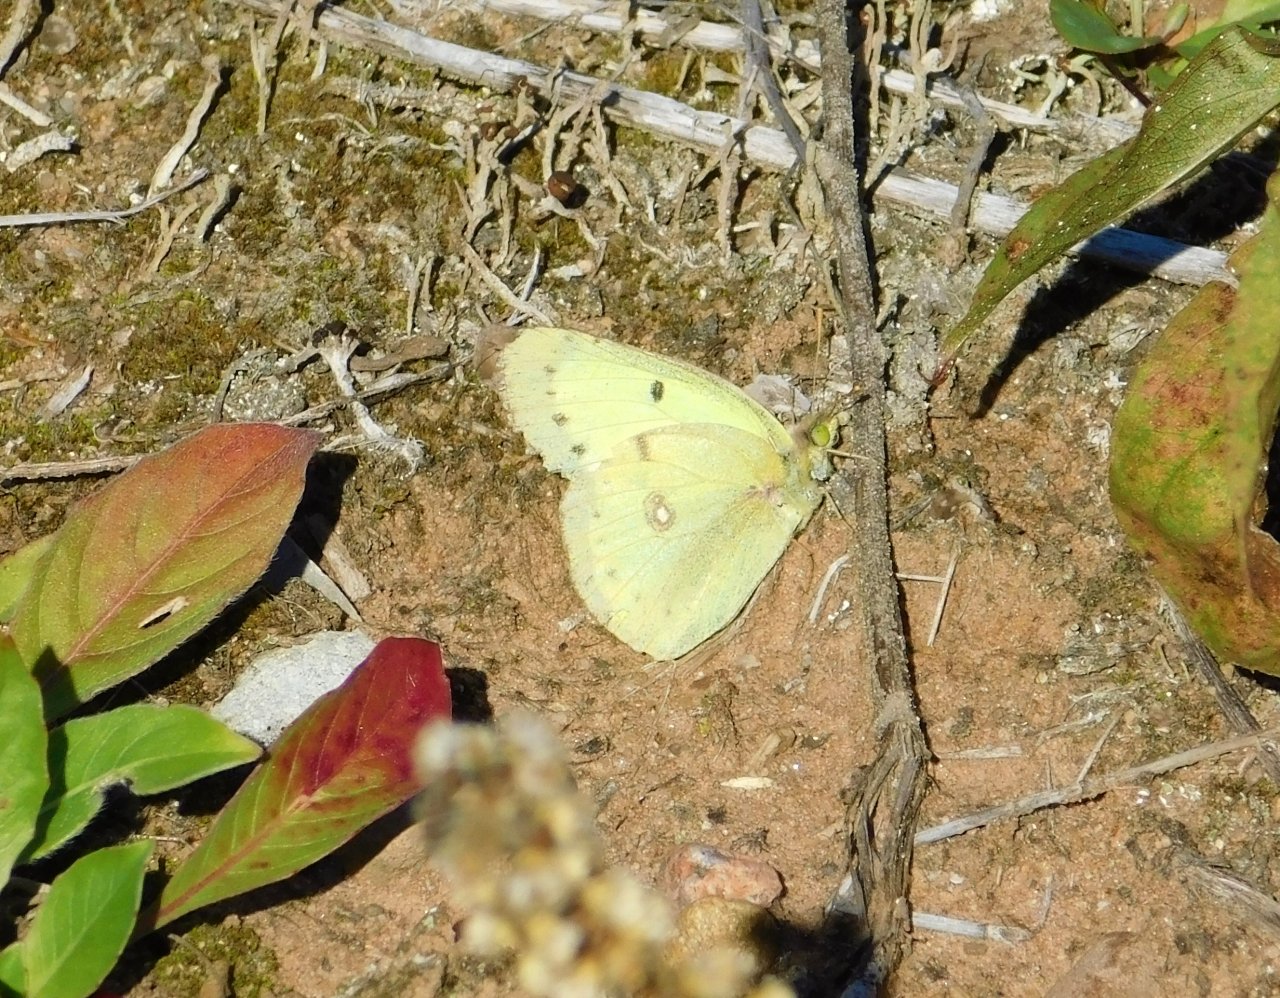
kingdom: Animalia
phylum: Arthropoda
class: Insecta
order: Lepidoptera
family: Pieridae
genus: Colias
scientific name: Colias philodice
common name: Clouded Sulphur
